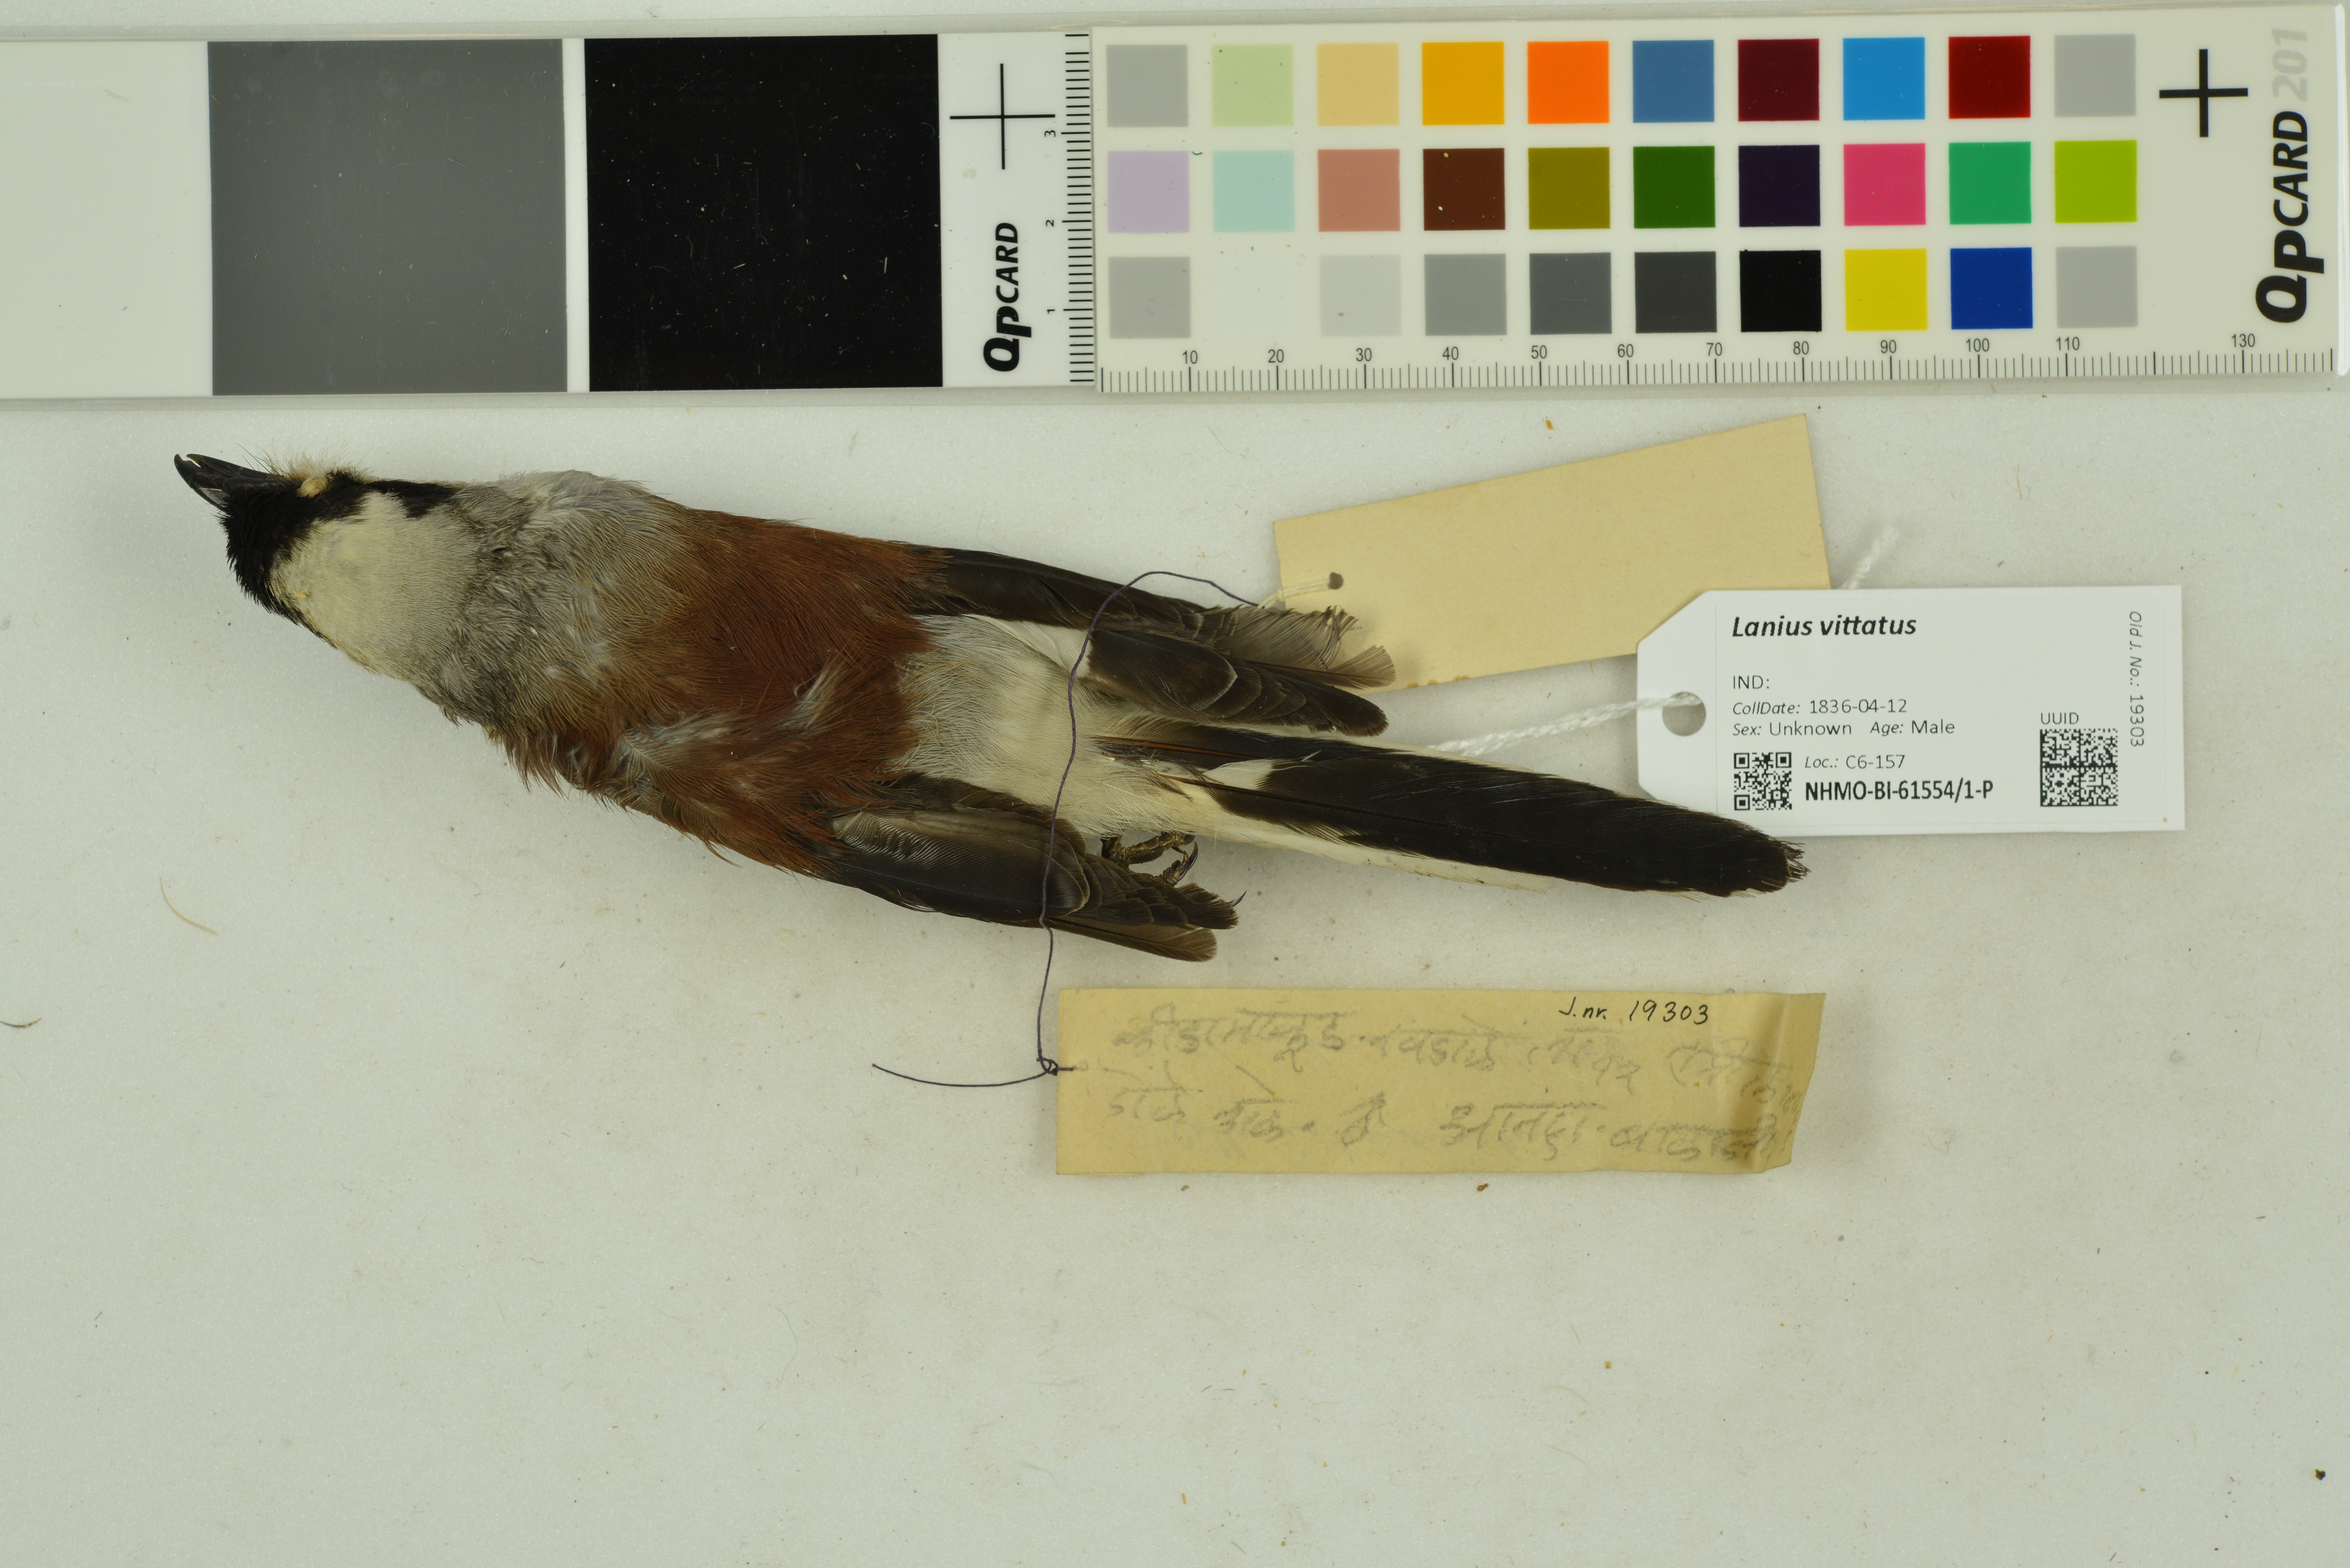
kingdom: Animalia
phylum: Chordata
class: Aves
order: Passeriformes
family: Laniidae
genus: Lanius
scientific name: Lanius vittatus
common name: Bay-backed shrike
